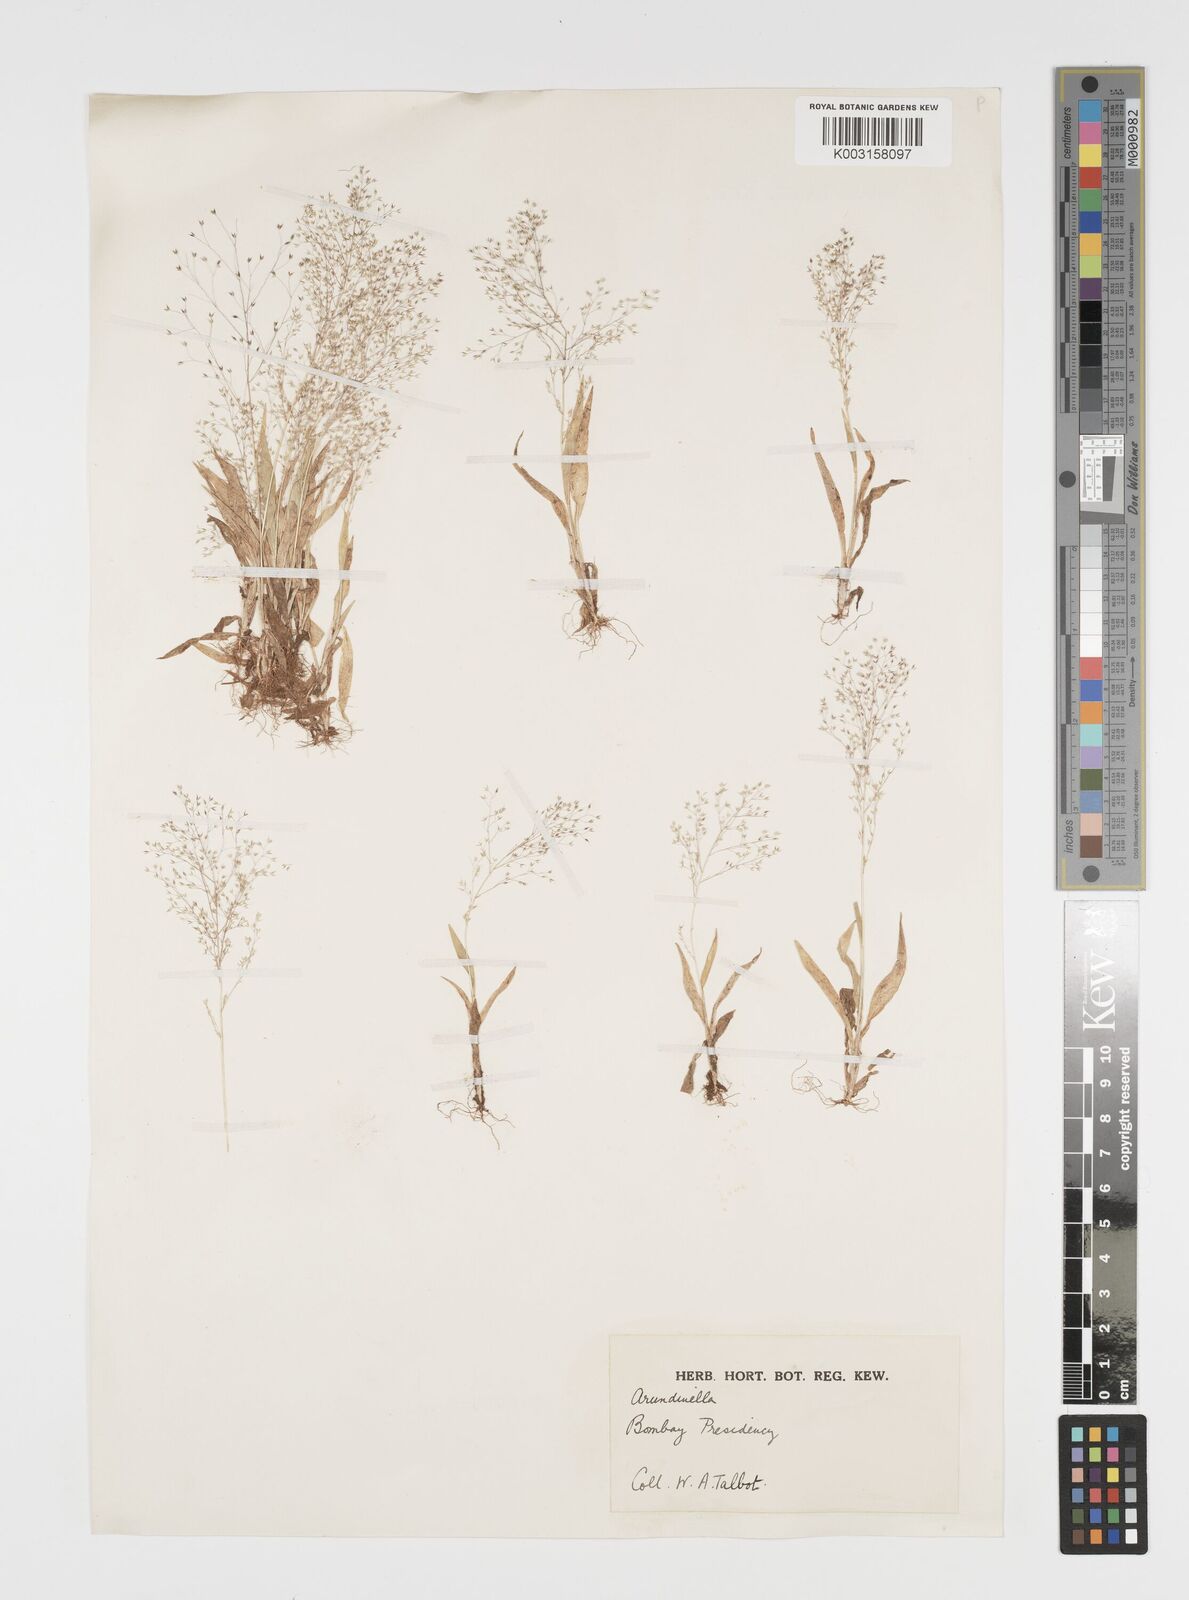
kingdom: Plantae
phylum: Tracheophyta
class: Liliopsida
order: Poales
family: Poaceae
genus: Arundinella
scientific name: Arundinella pumila
